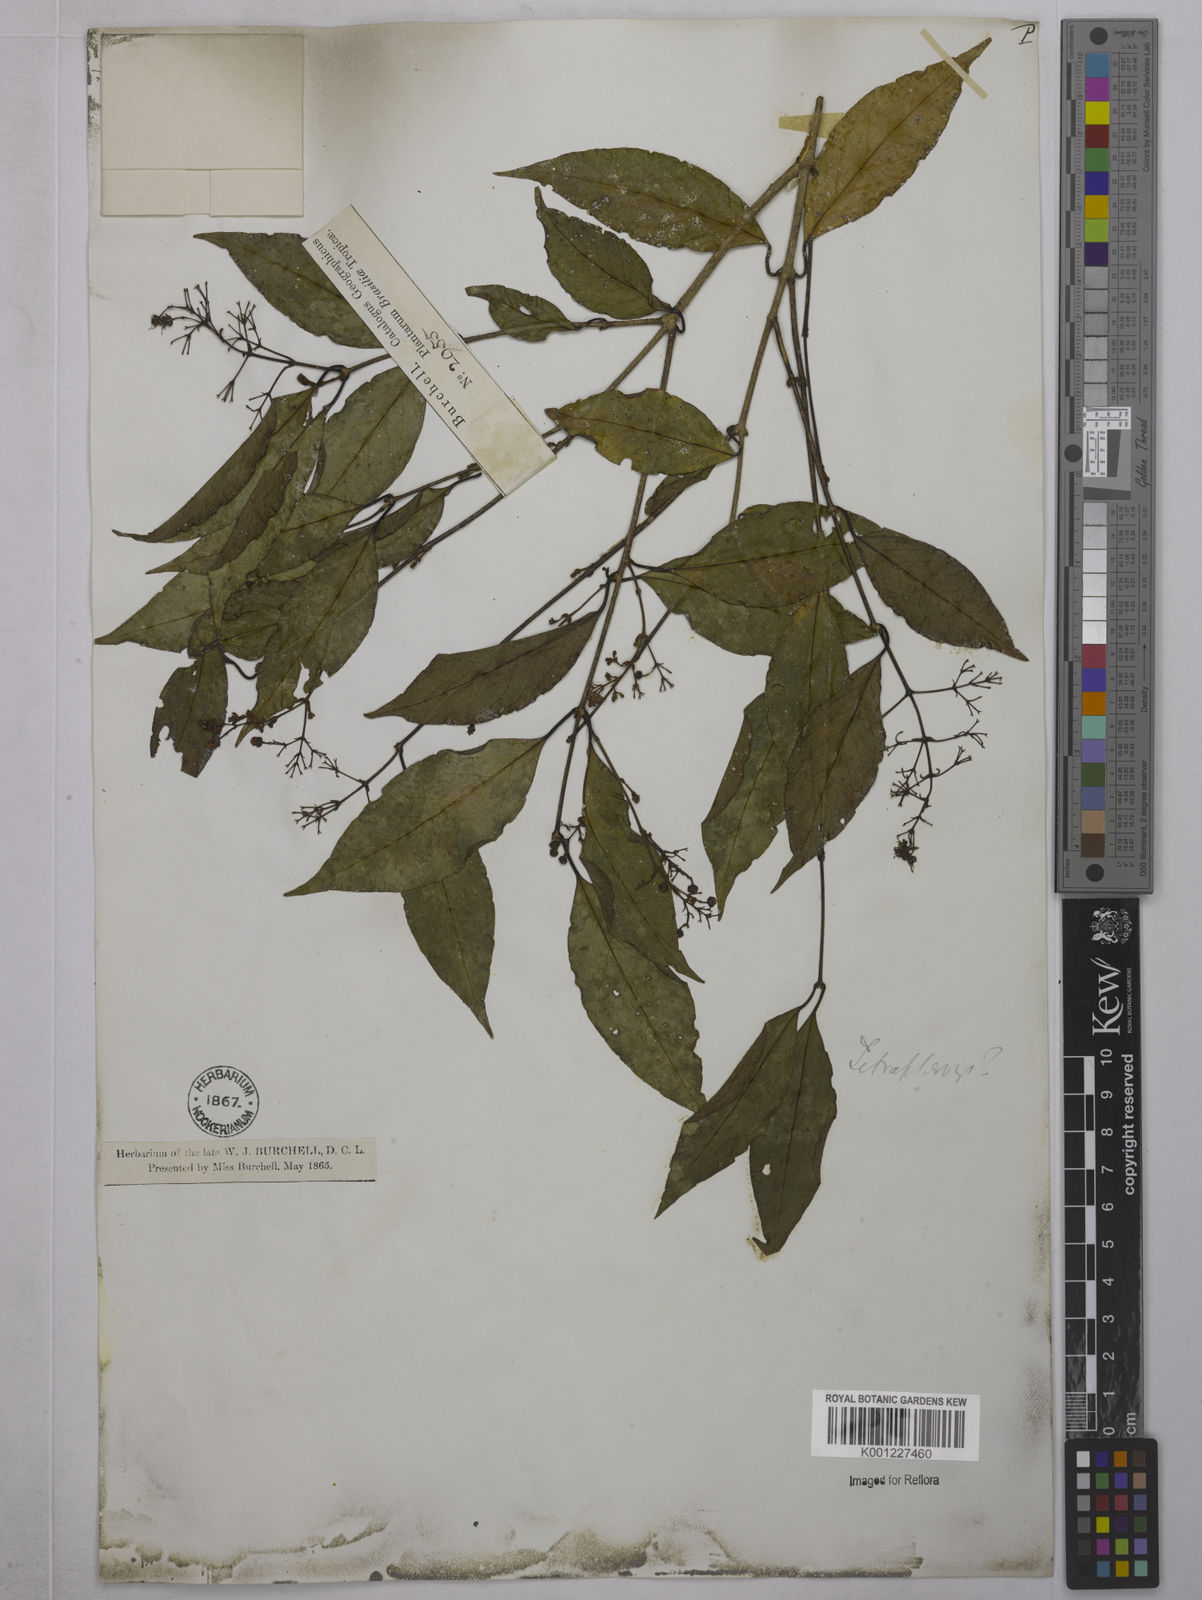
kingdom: Plantae
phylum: Tracheophyta
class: Magnoliopsida
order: Malpighiales
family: Malpighiaceae
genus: Tetrapterys
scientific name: Tetrapterys
